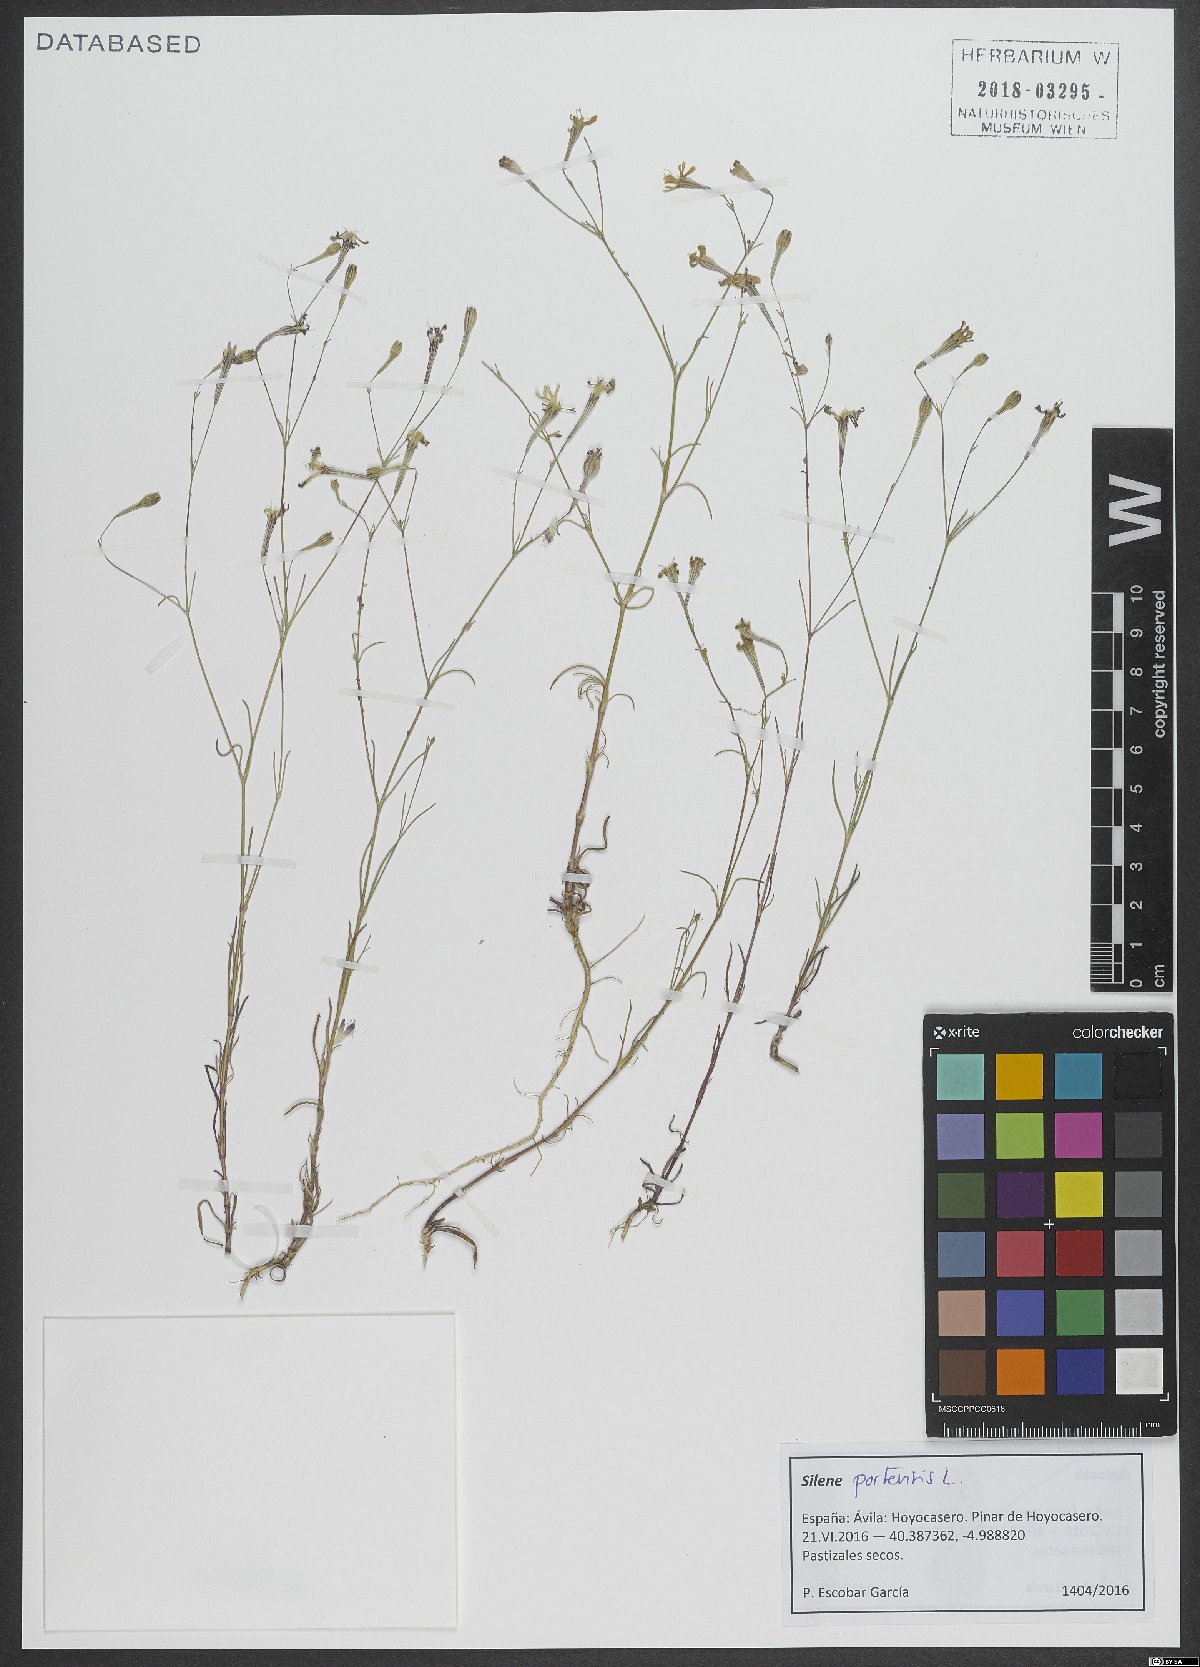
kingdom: Plantae
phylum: Tracheophyta
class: Magnoliopsida
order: Caryophyllales
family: Caryophyllaceae
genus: Silene
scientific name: Silene portensis
